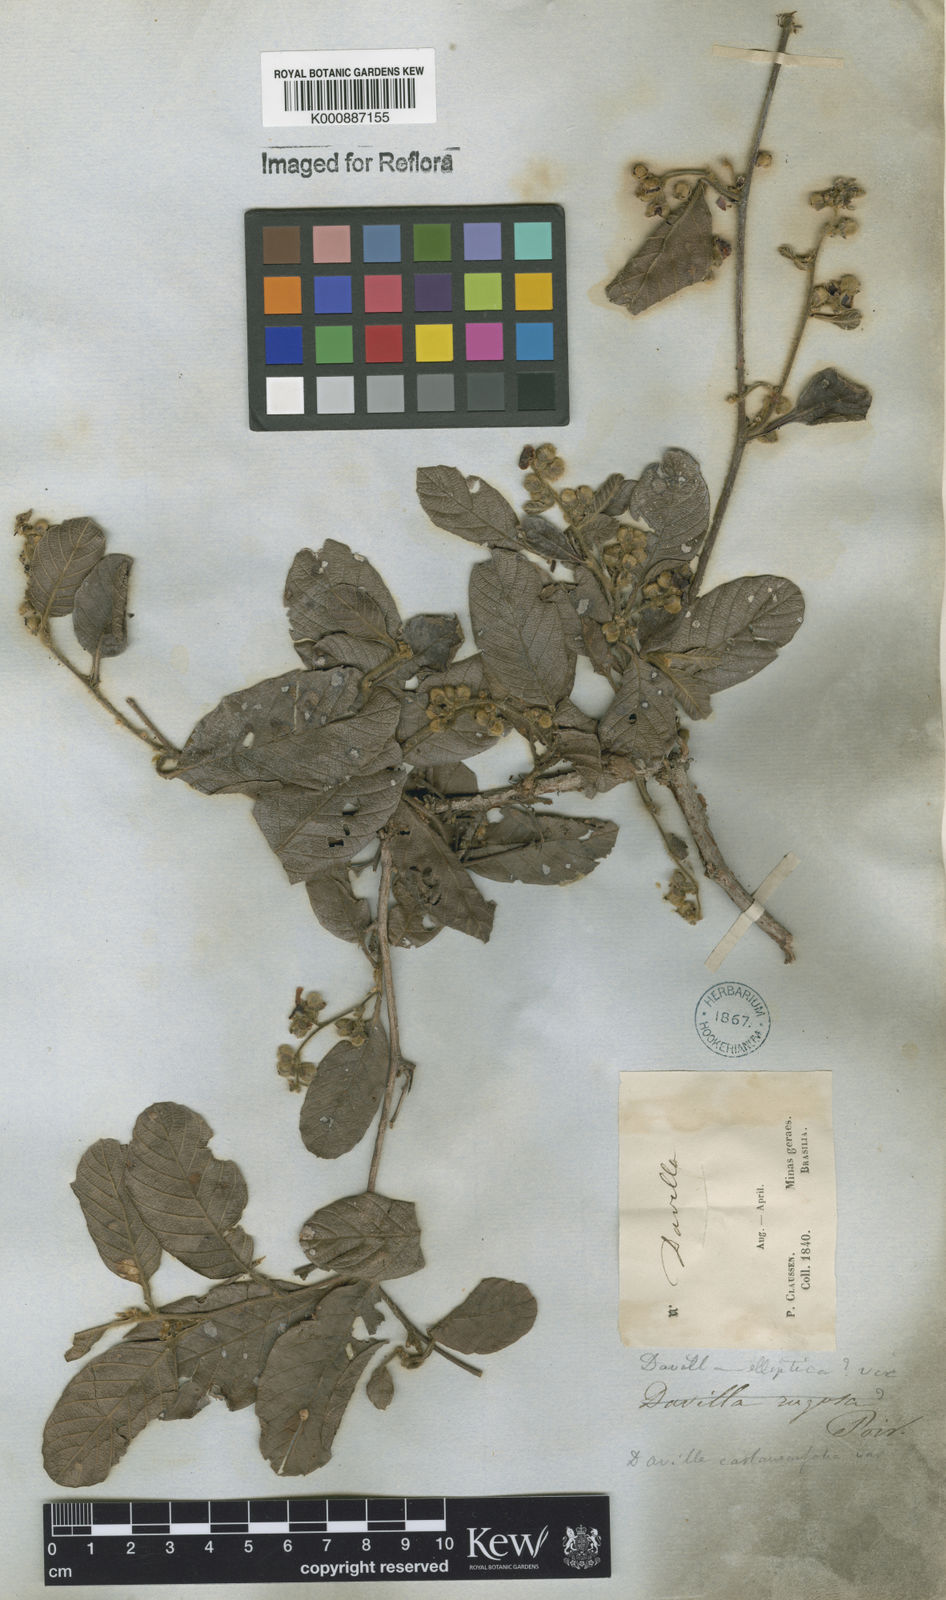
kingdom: Plantae
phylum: Tracheophyta
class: Magnoliopsida
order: Dilleniales
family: Dilleniaceae
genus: Davilla
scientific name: Davilla elliptica
